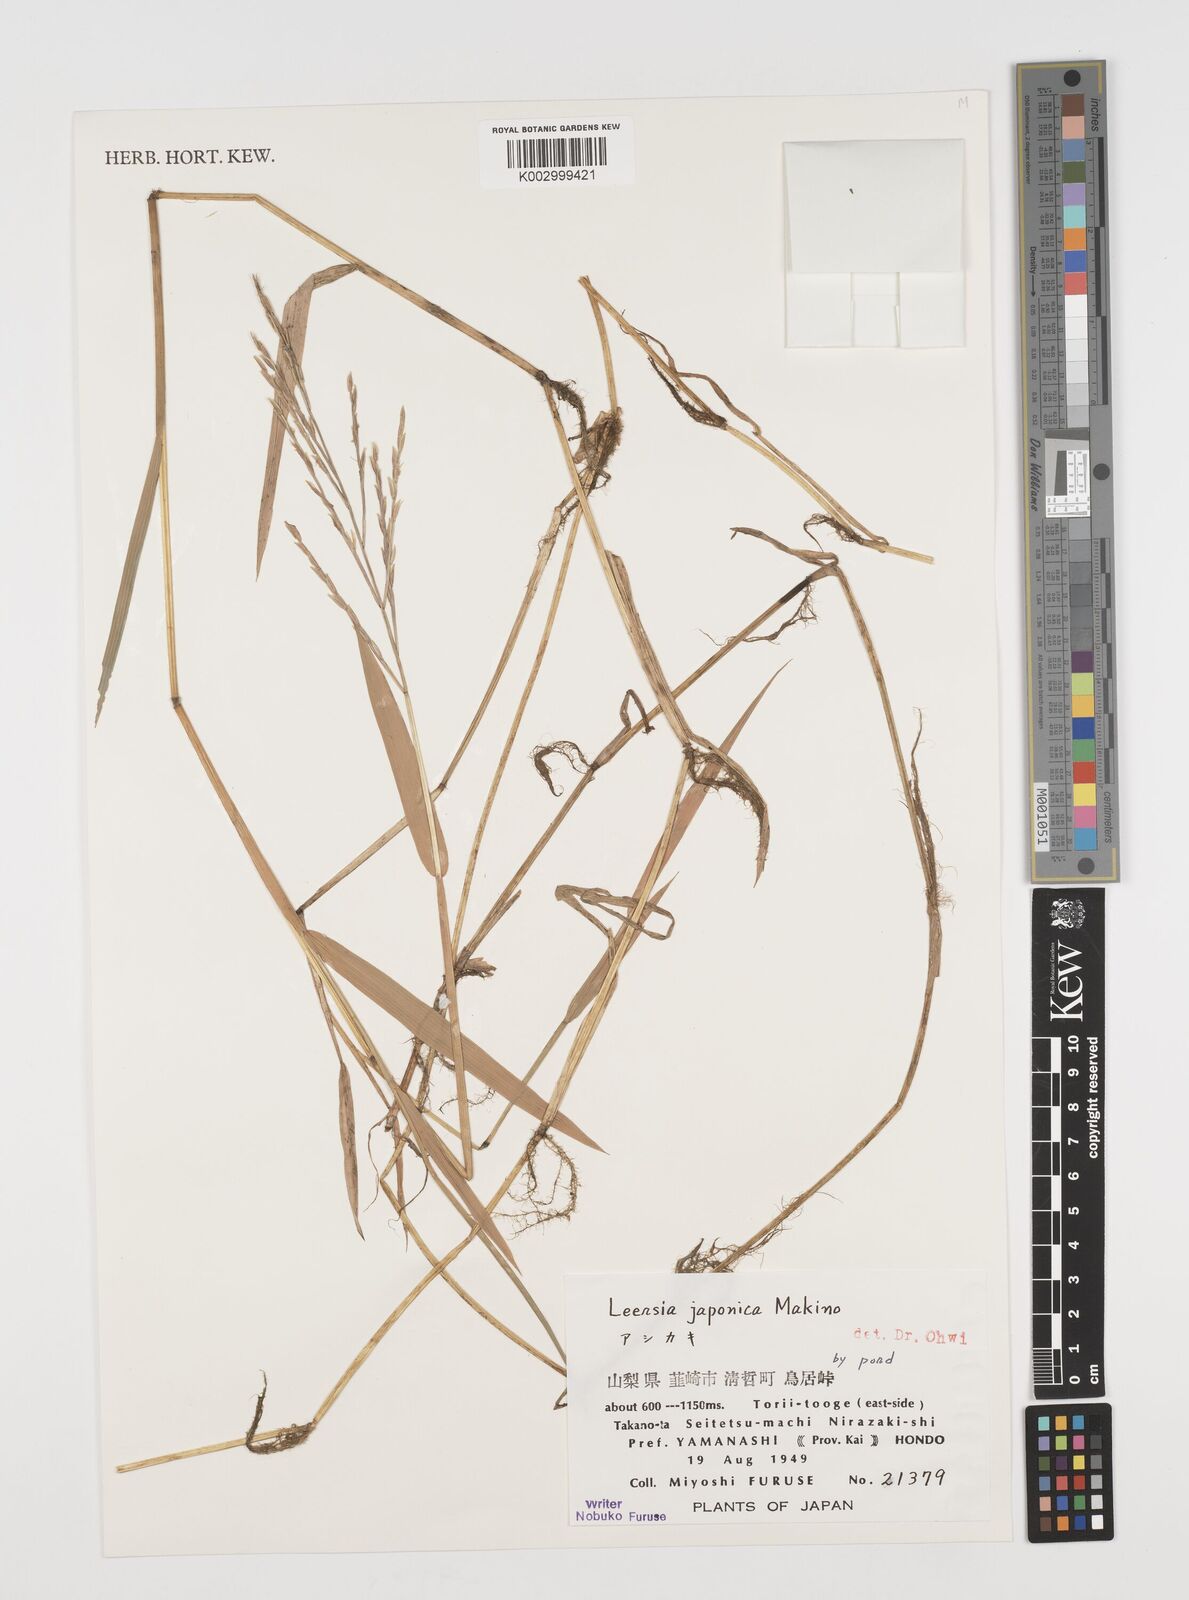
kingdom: Plantae
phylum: Tracheophyta
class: Liliopsida
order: Poales
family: Poaceae
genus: Leersia
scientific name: Leersia japonica
